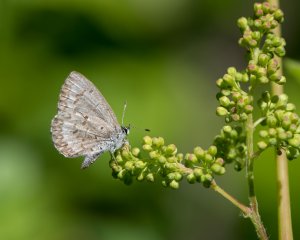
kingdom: Animalia
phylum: Arthropoda
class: Insecta
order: Lepidoptera
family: Lycaenidae
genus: Celastrina
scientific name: Celastrina lucia
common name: Northern Spring Azure
